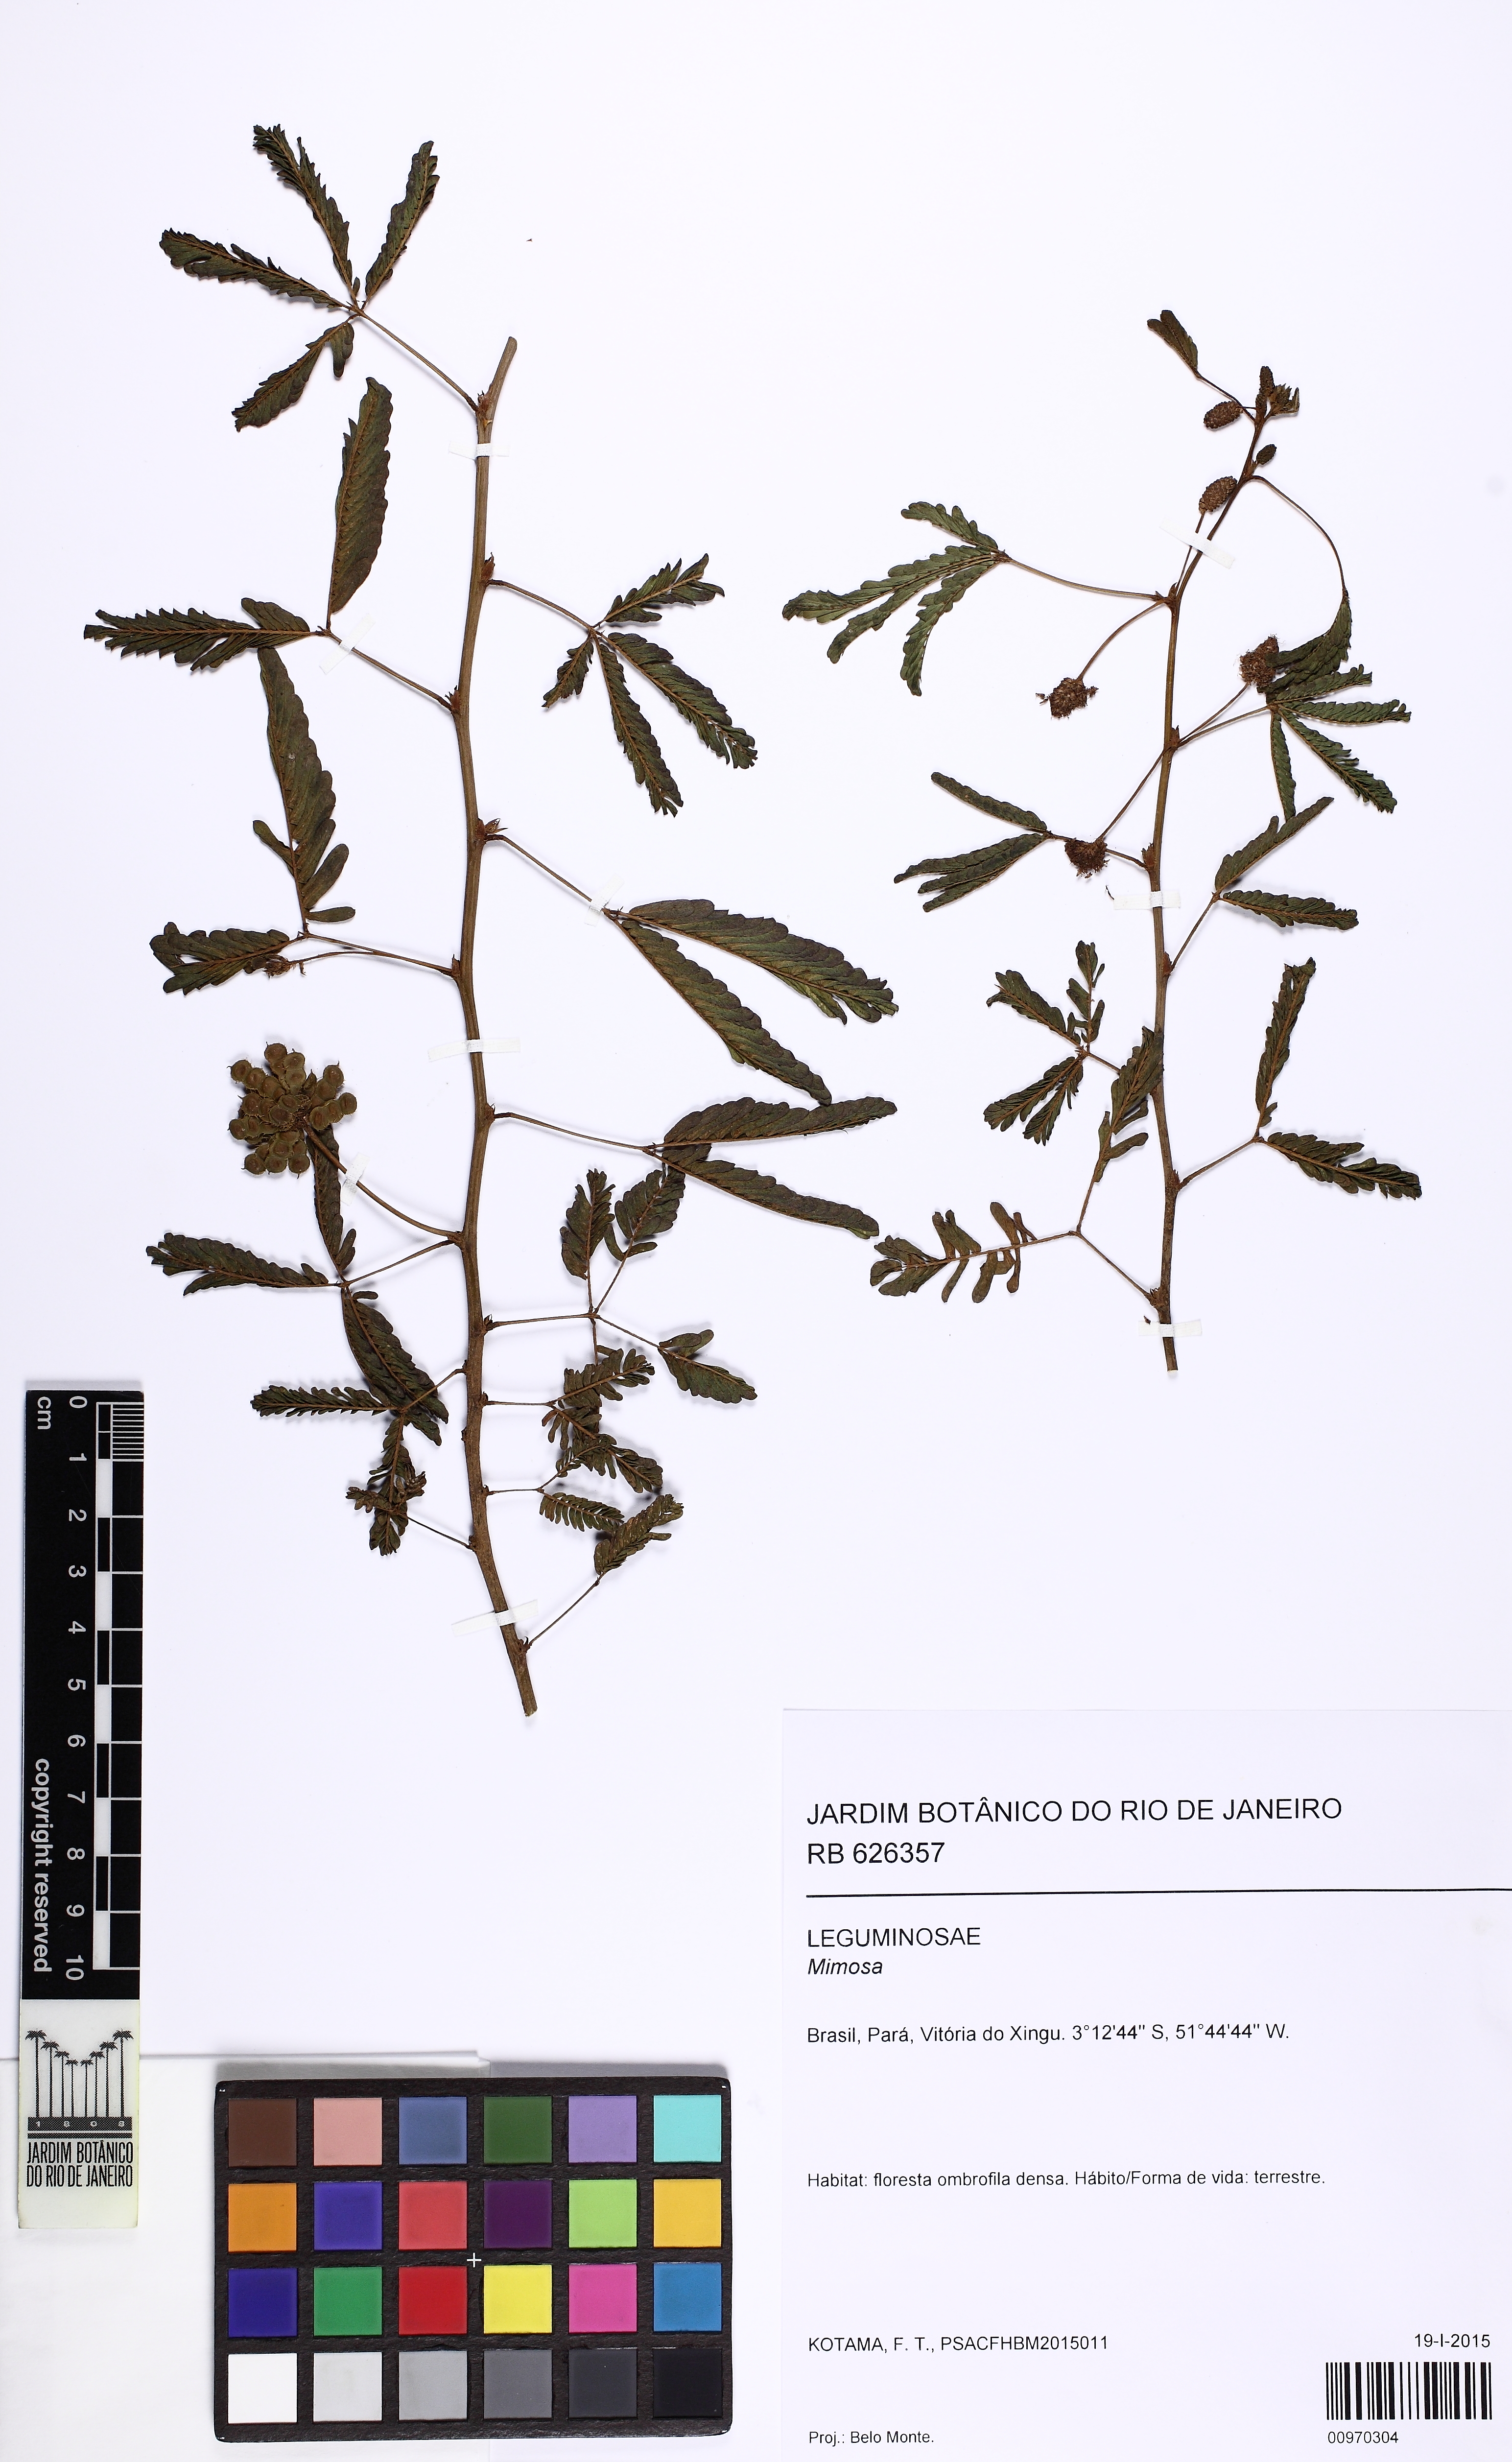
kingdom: Plantae
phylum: Tracheophyta
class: Magnoliopsida
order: Fabales
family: Fabaceae
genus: Mimosa
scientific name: Mimosa
